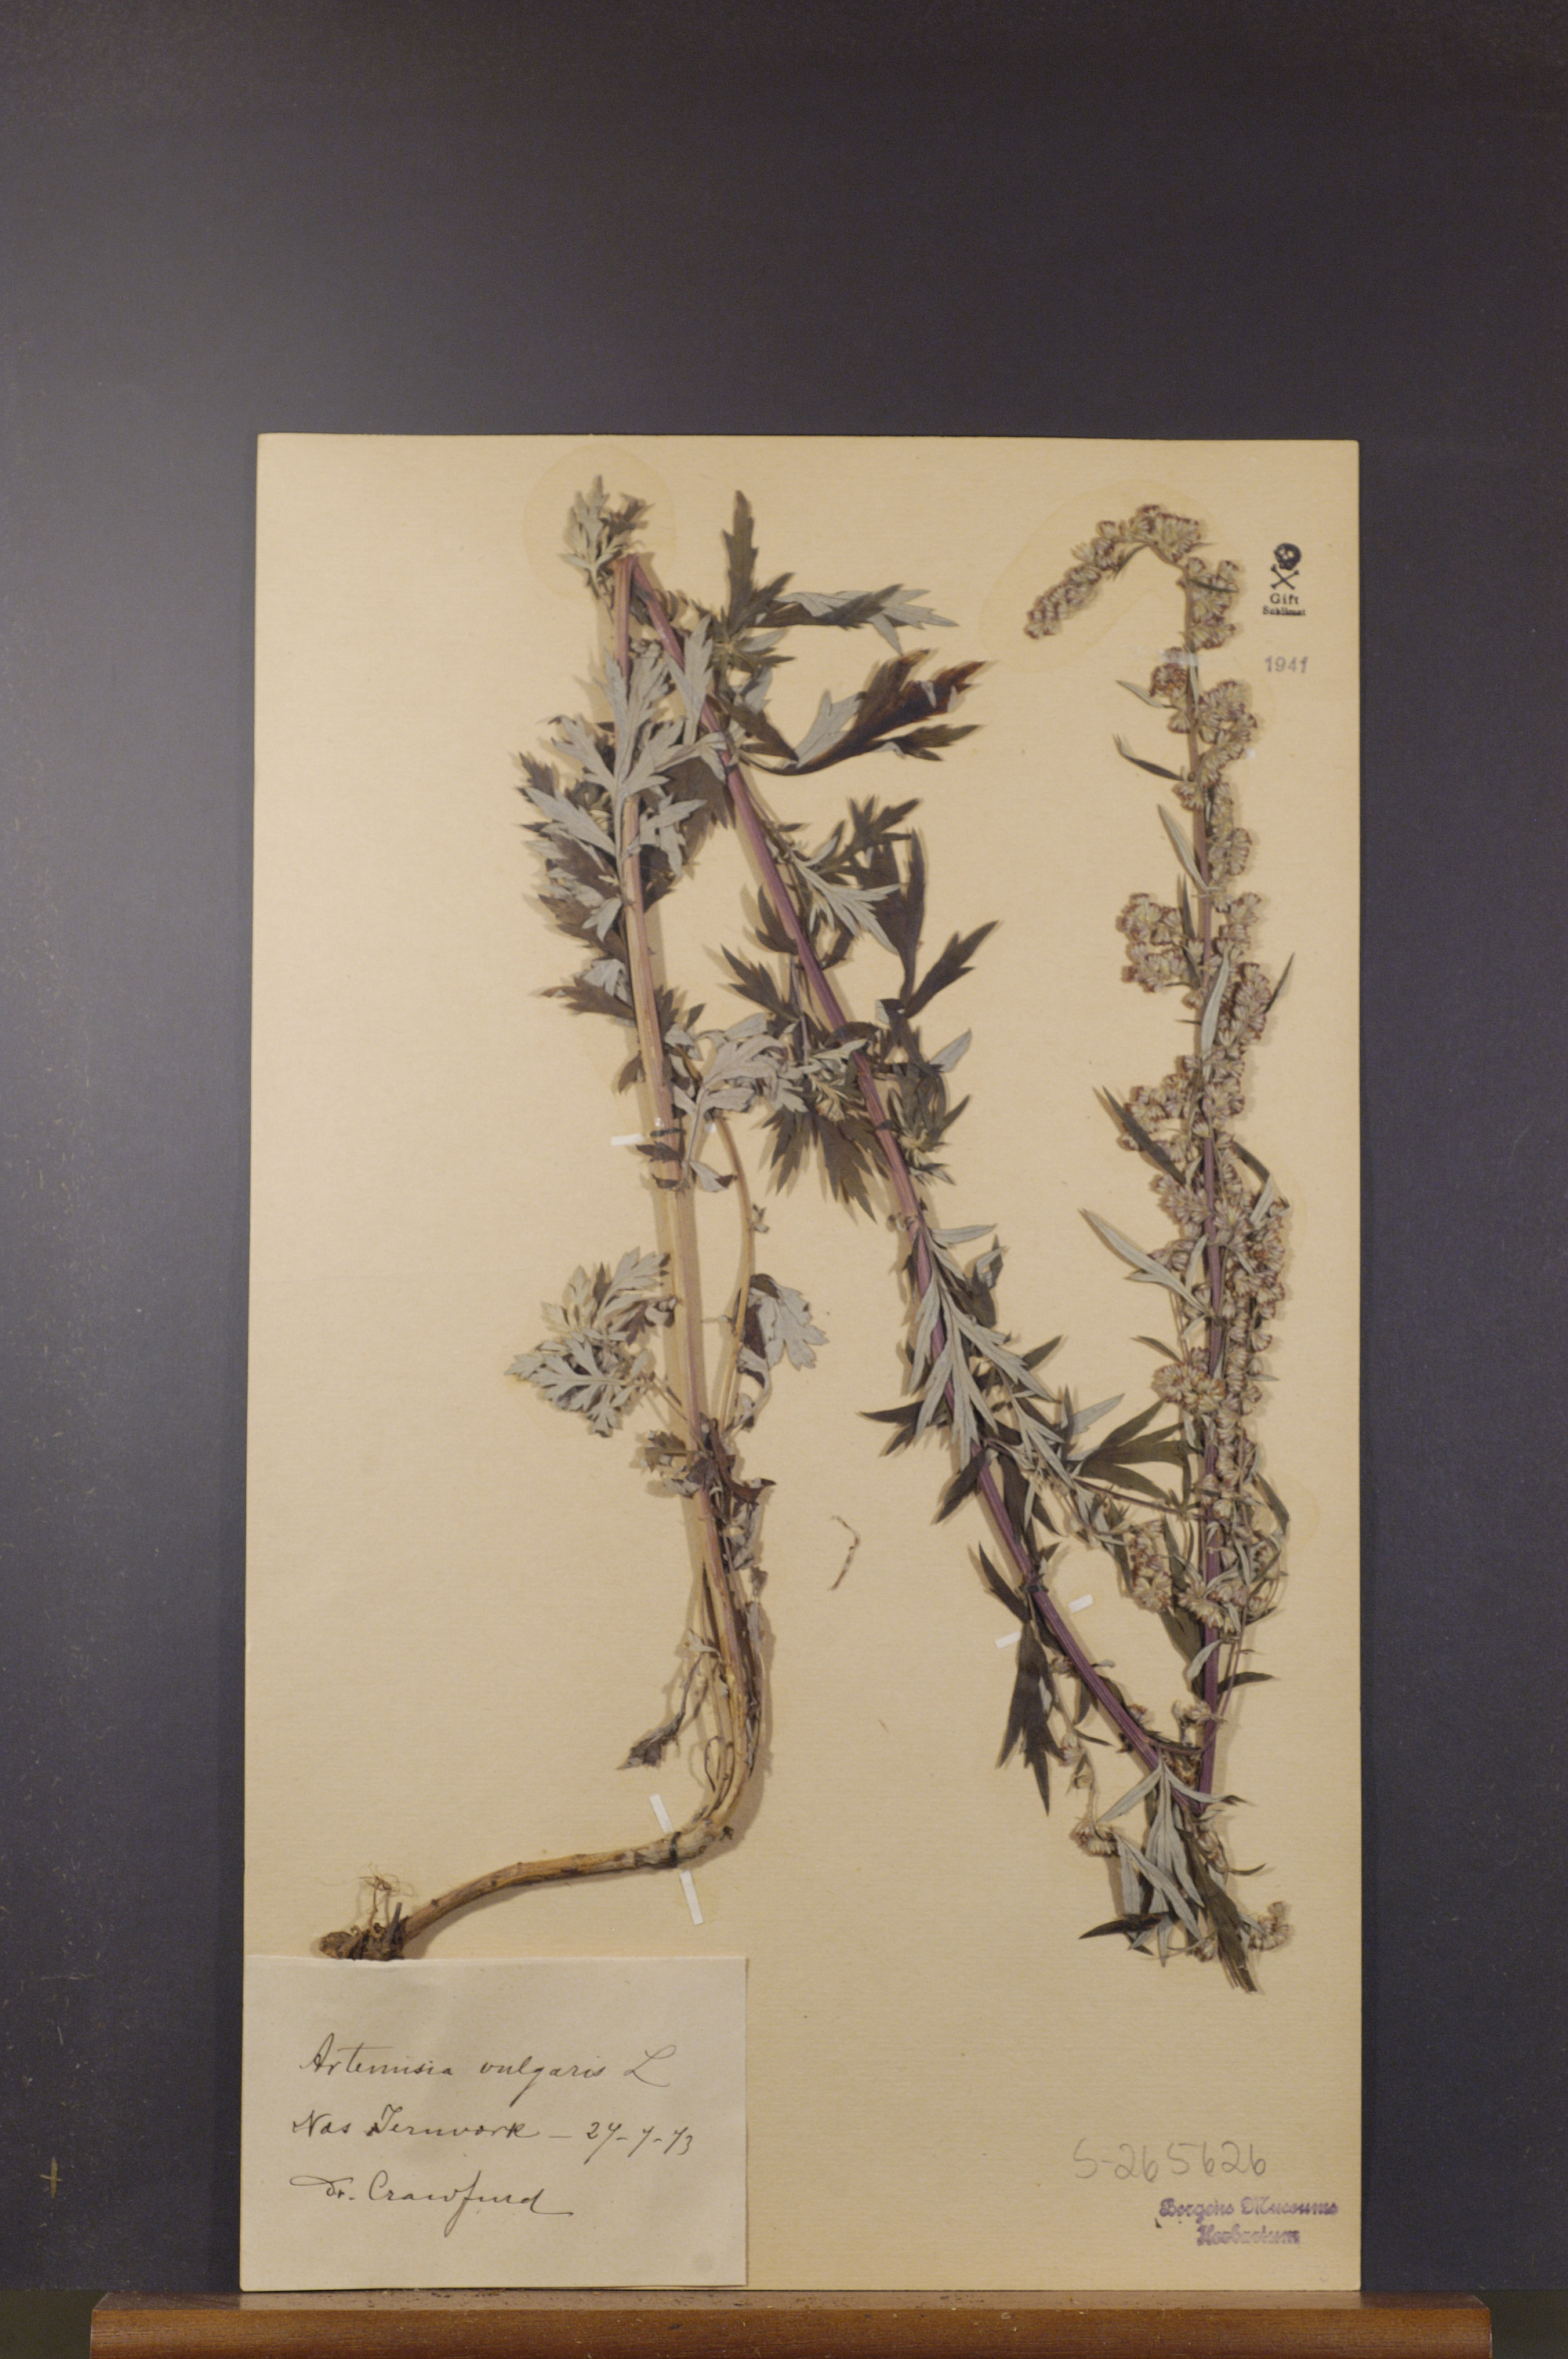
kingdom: Plantae
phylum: Tracheophyta
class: Magnoliopsida
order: Asterales
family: Asteraceae
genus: Artemisia
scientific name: Artemisia vulgaris
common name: Mugwort
